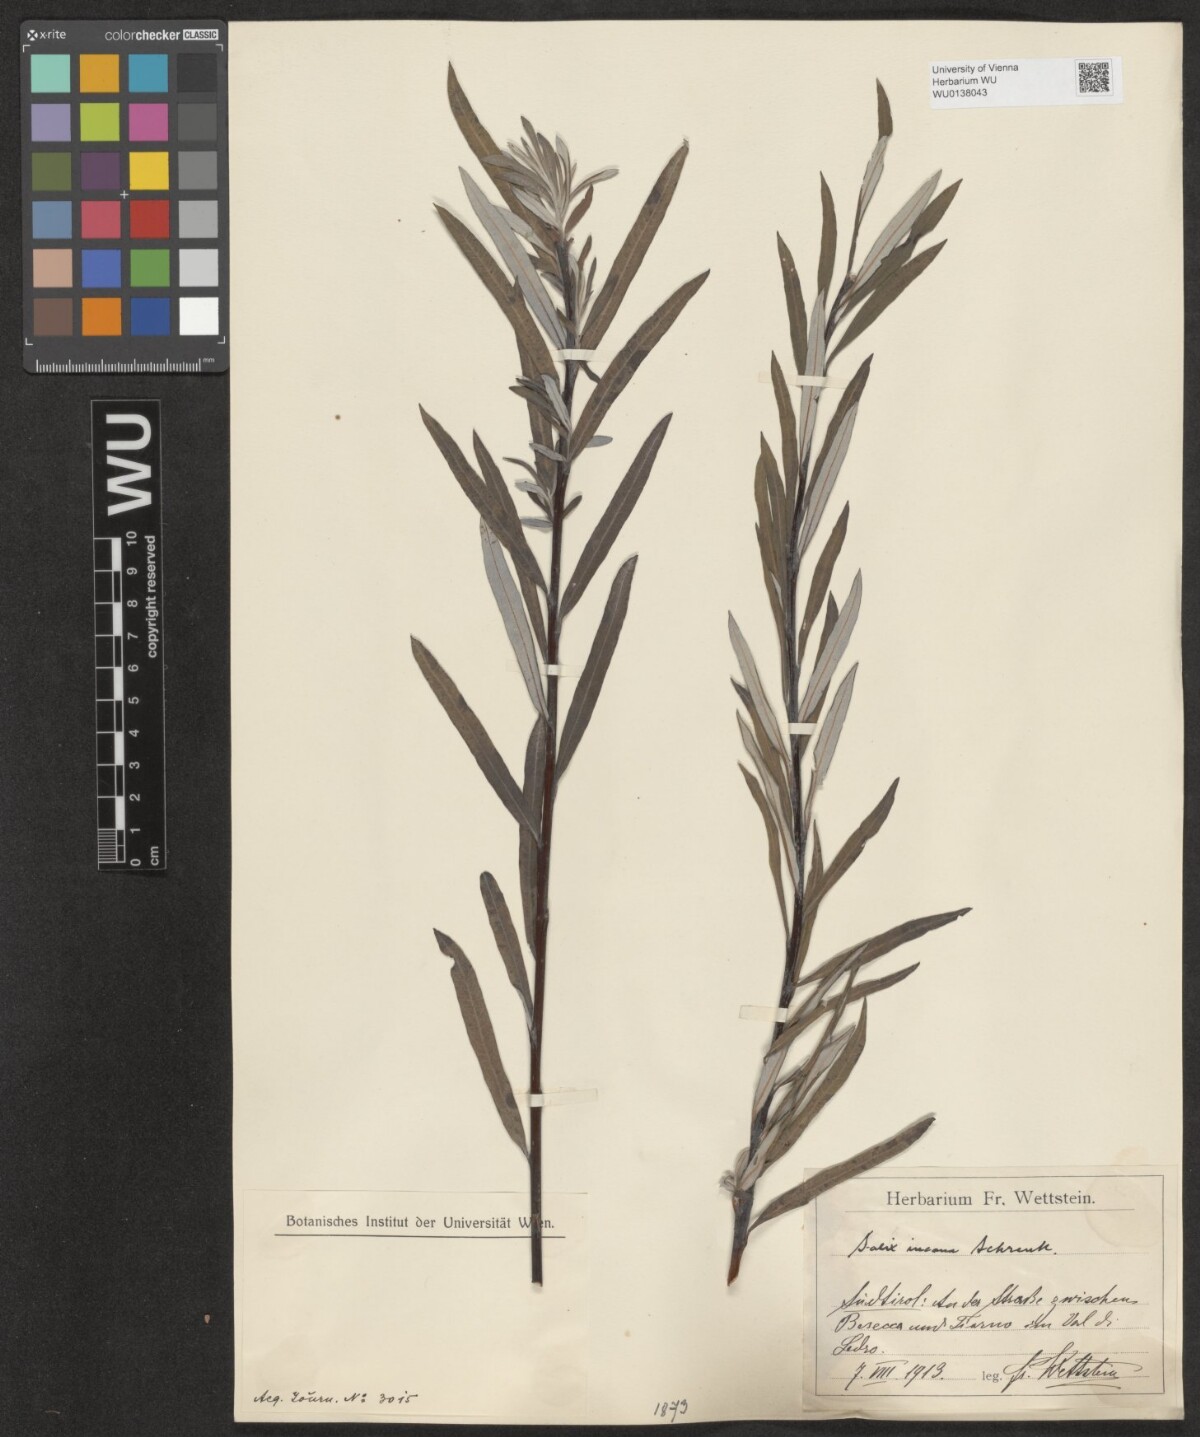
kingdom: Plantae
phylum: Tracheophyta
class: Magnoliopsida
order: Malpighiales
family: Salicaceae
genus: Salix
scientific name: Salix eleagnos
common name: Elaeagnus willow
